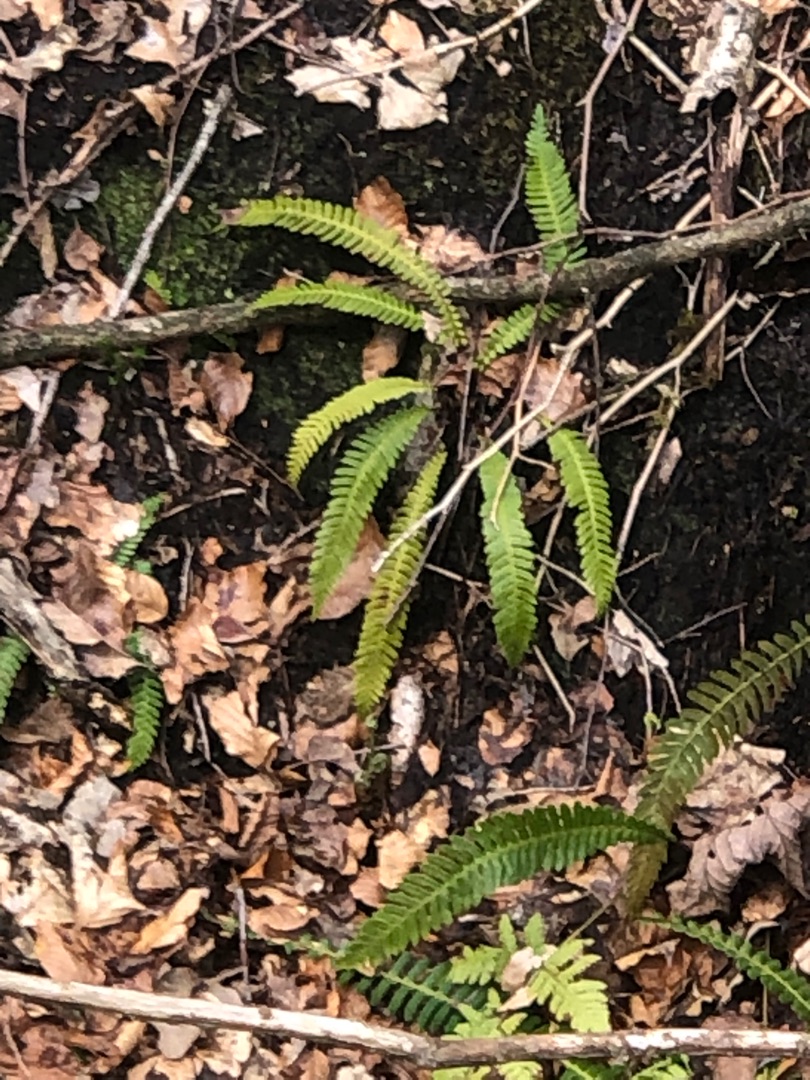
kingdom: Plantae
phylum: Tracheophyta
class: Polypodiopsida
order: Polypodiales
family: Blechnaceae
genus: Struthiopteris
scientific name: Struthiopteris spicant
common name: Kambregne
